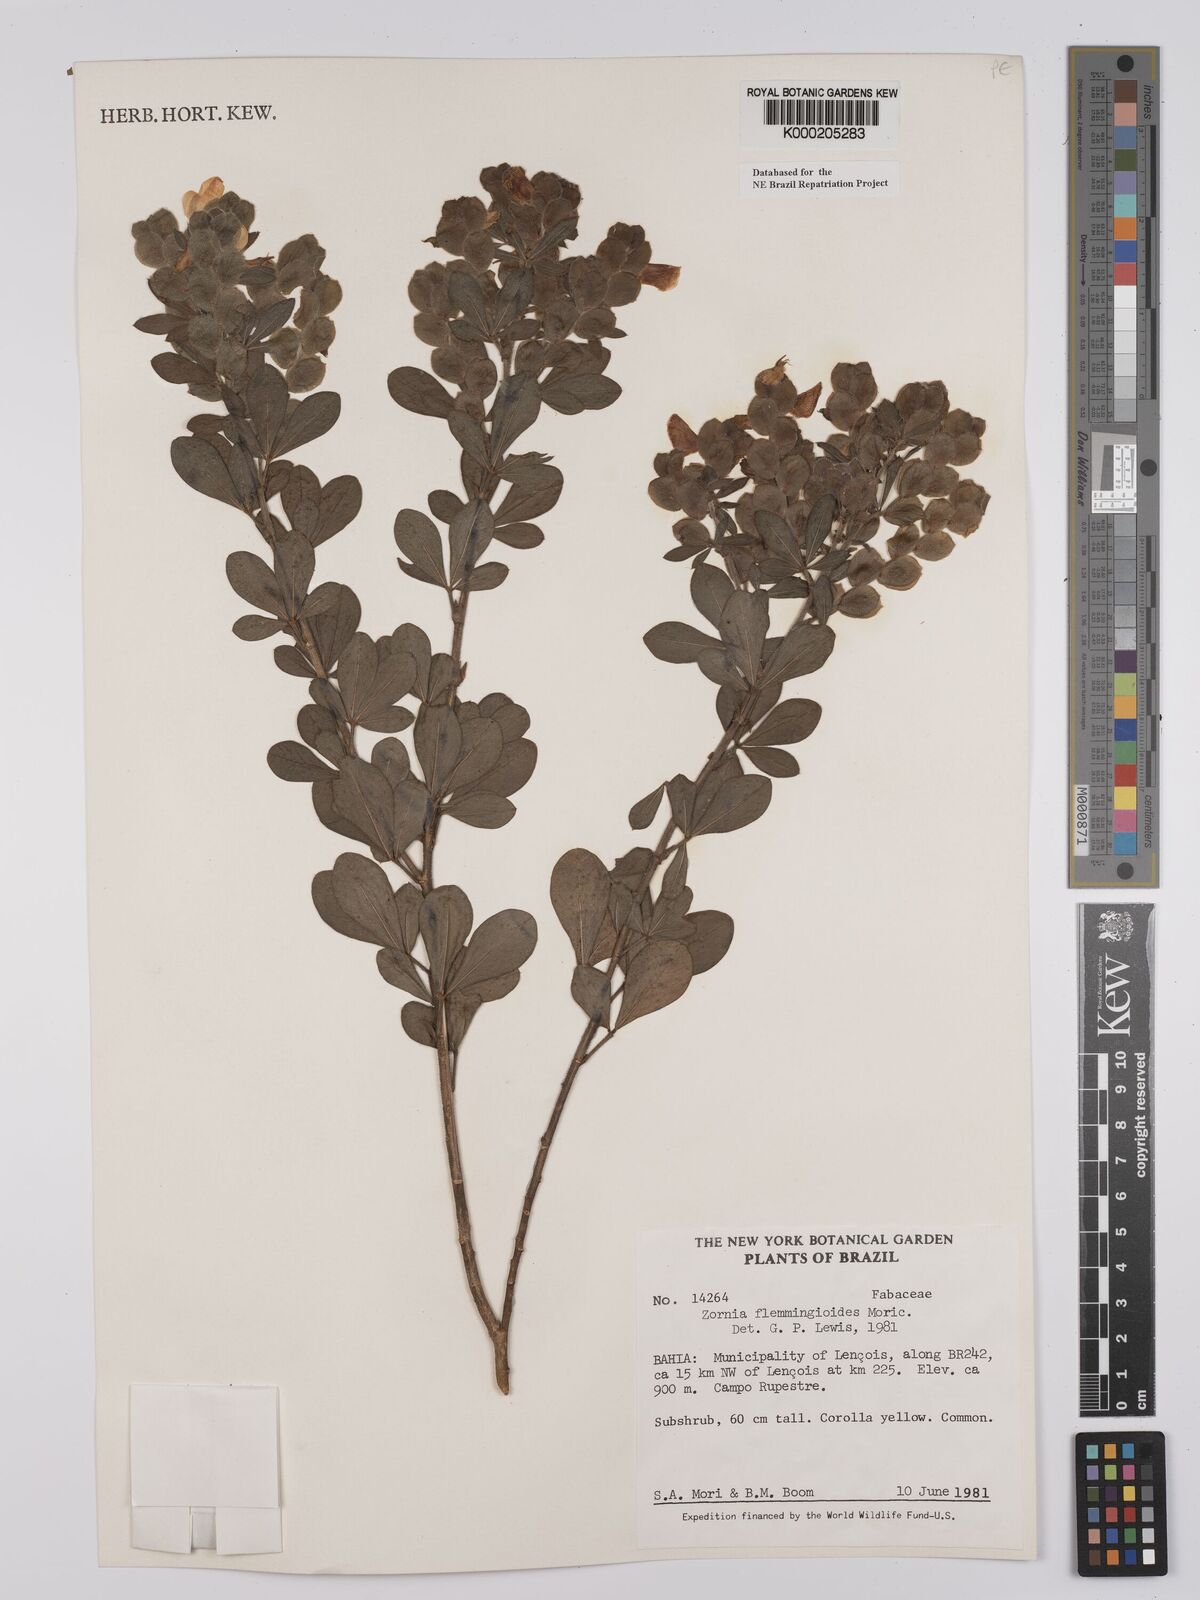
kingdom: Plantae
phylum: Tracheophyta
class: Magnoliopsida
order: Fabales
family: Fabaceae
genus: Zornia
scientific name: Zornia flemmingioides
